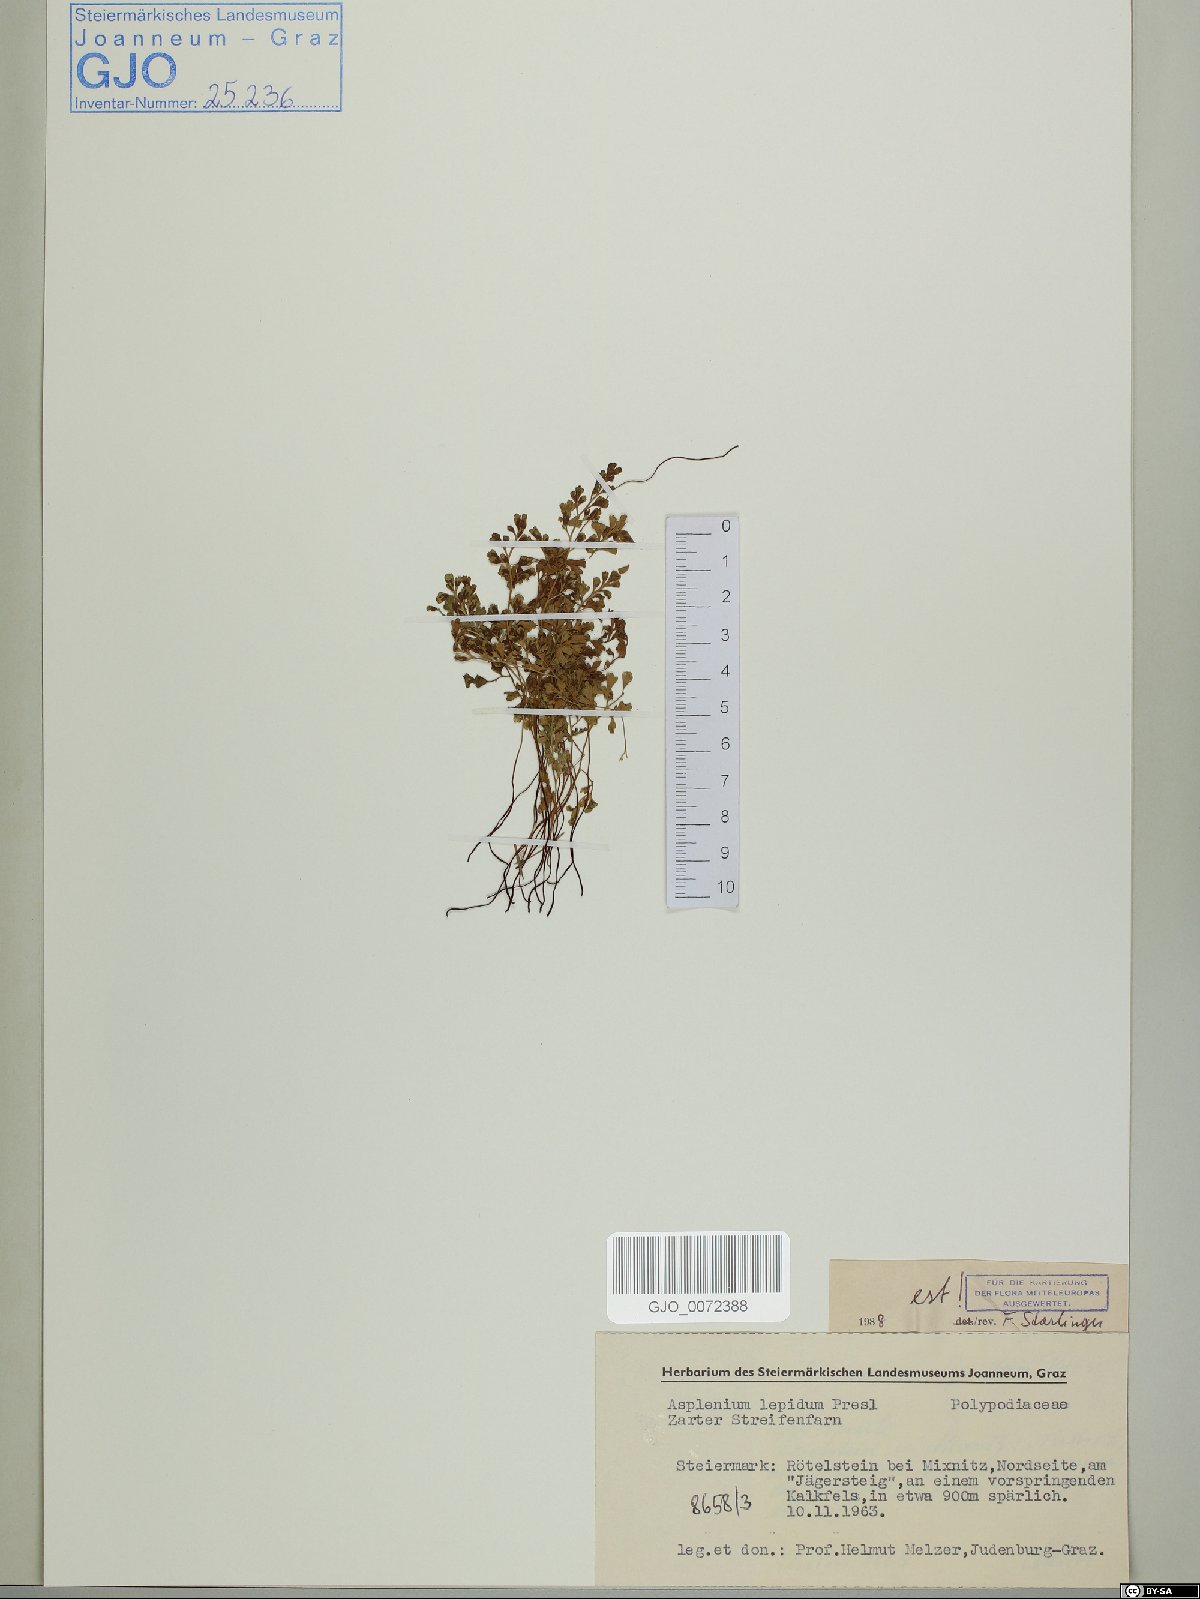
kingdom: Plantae
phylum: Tracheophyta
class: Polypodiopsida
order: Polypodiales
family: Aspleniaceae
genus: Asplenium
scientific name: Asplenium lepidum
